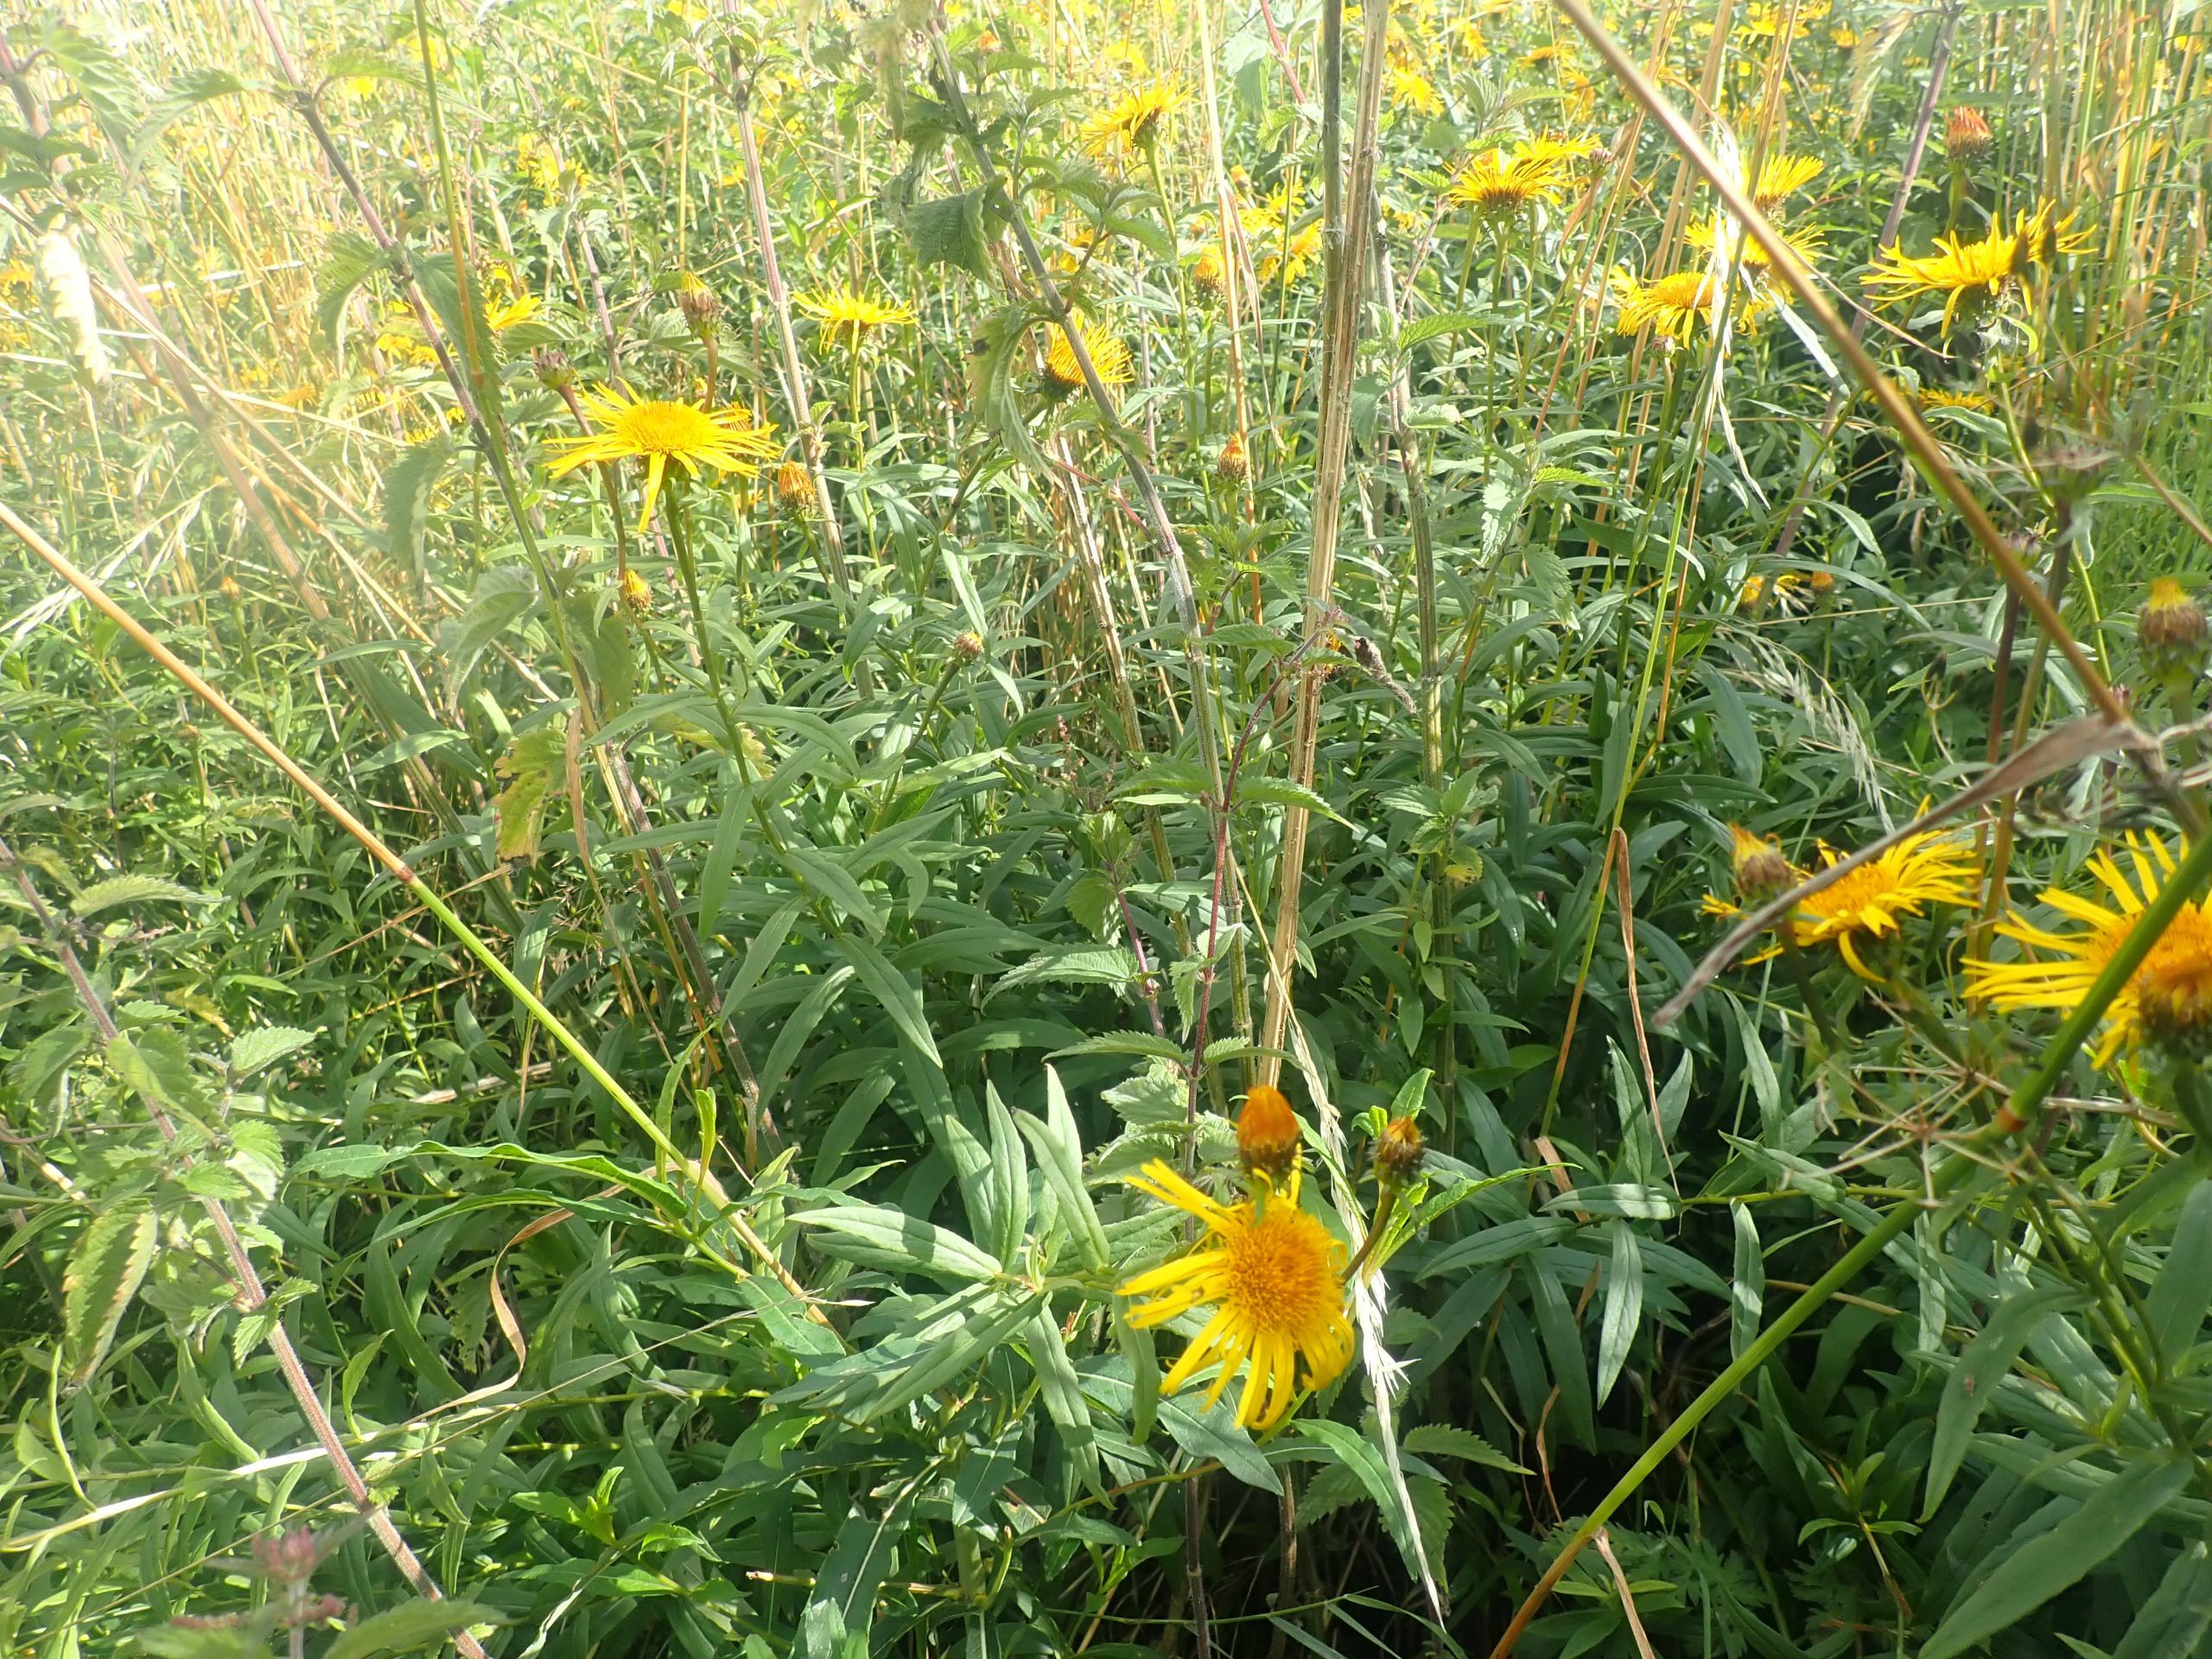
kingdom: Plantae
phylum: Tracheophyta
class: Magnoliopsida
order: Asterales
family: Asteraceae
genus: Pentanema
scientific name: Pentanema salicinum
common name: Pile-alant
